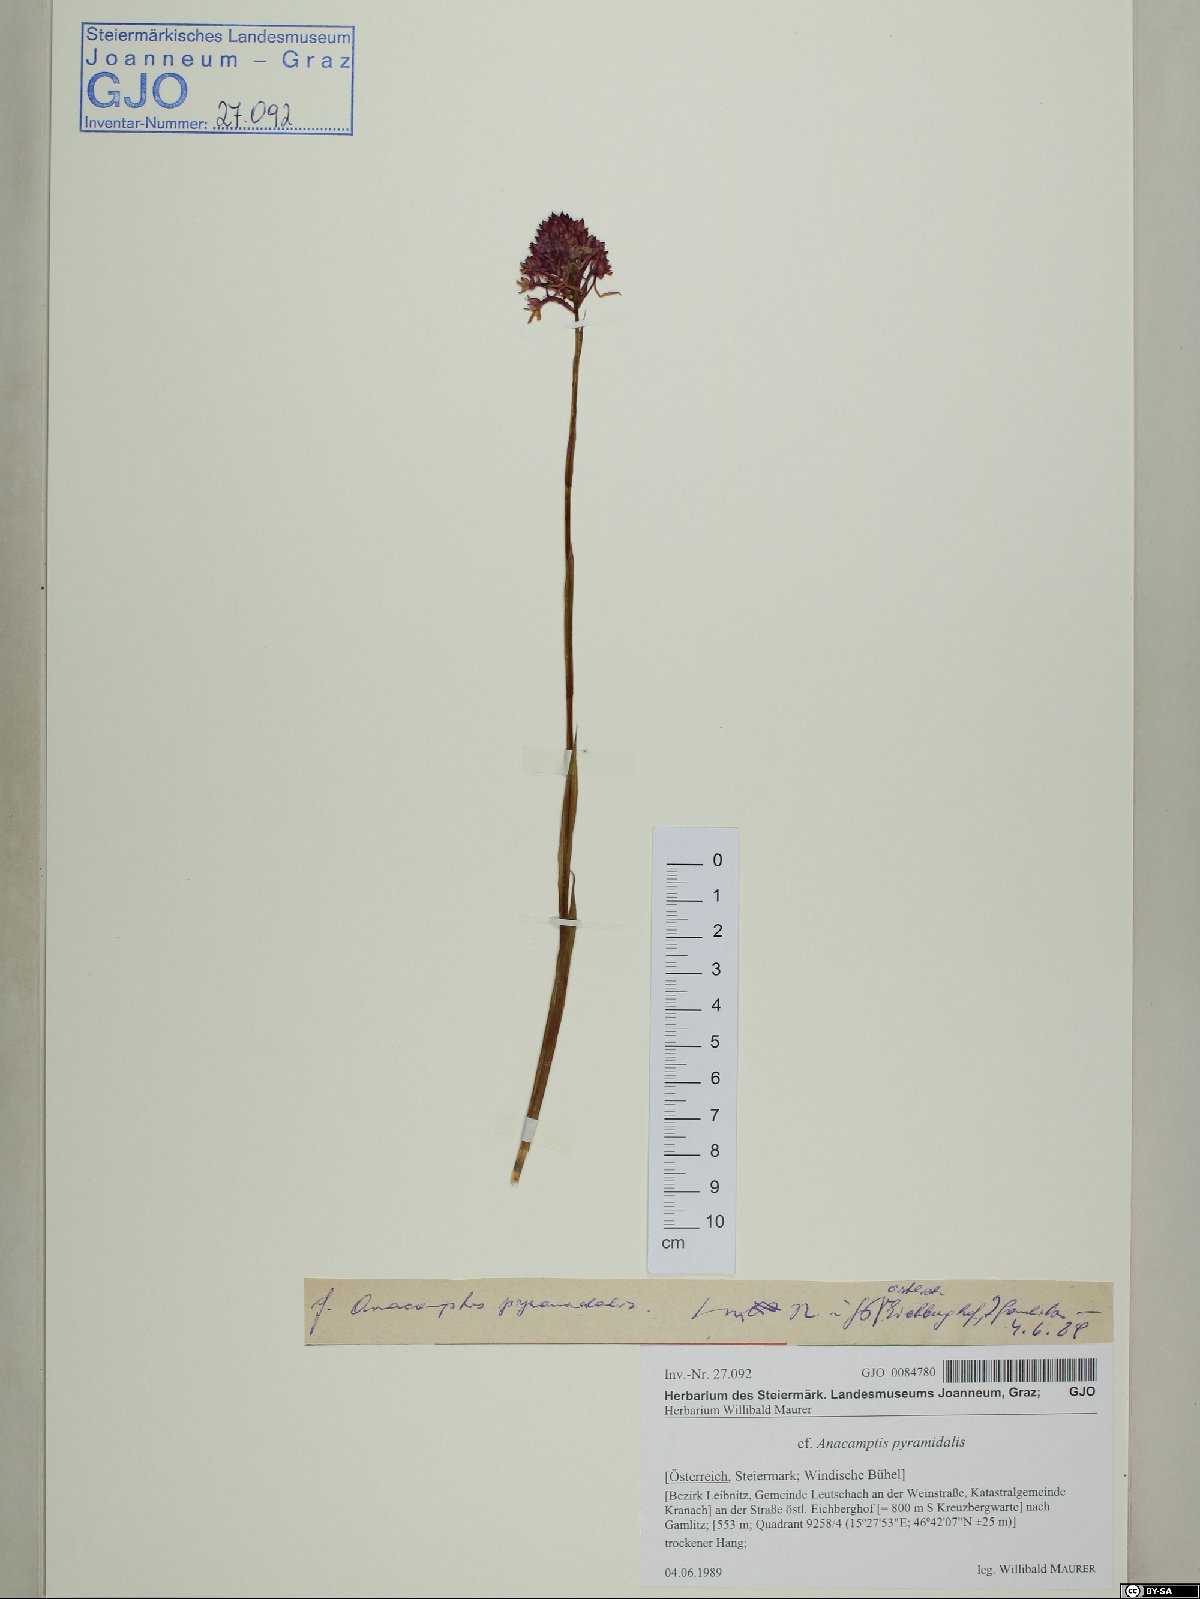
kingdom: Plantae
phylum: Tracheophyta
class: Liliopsida
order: Asparagales
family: Orchidaceae
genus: Anacamptis
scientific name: Anacamptis pyramidalis
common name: Pyramidal orchid
